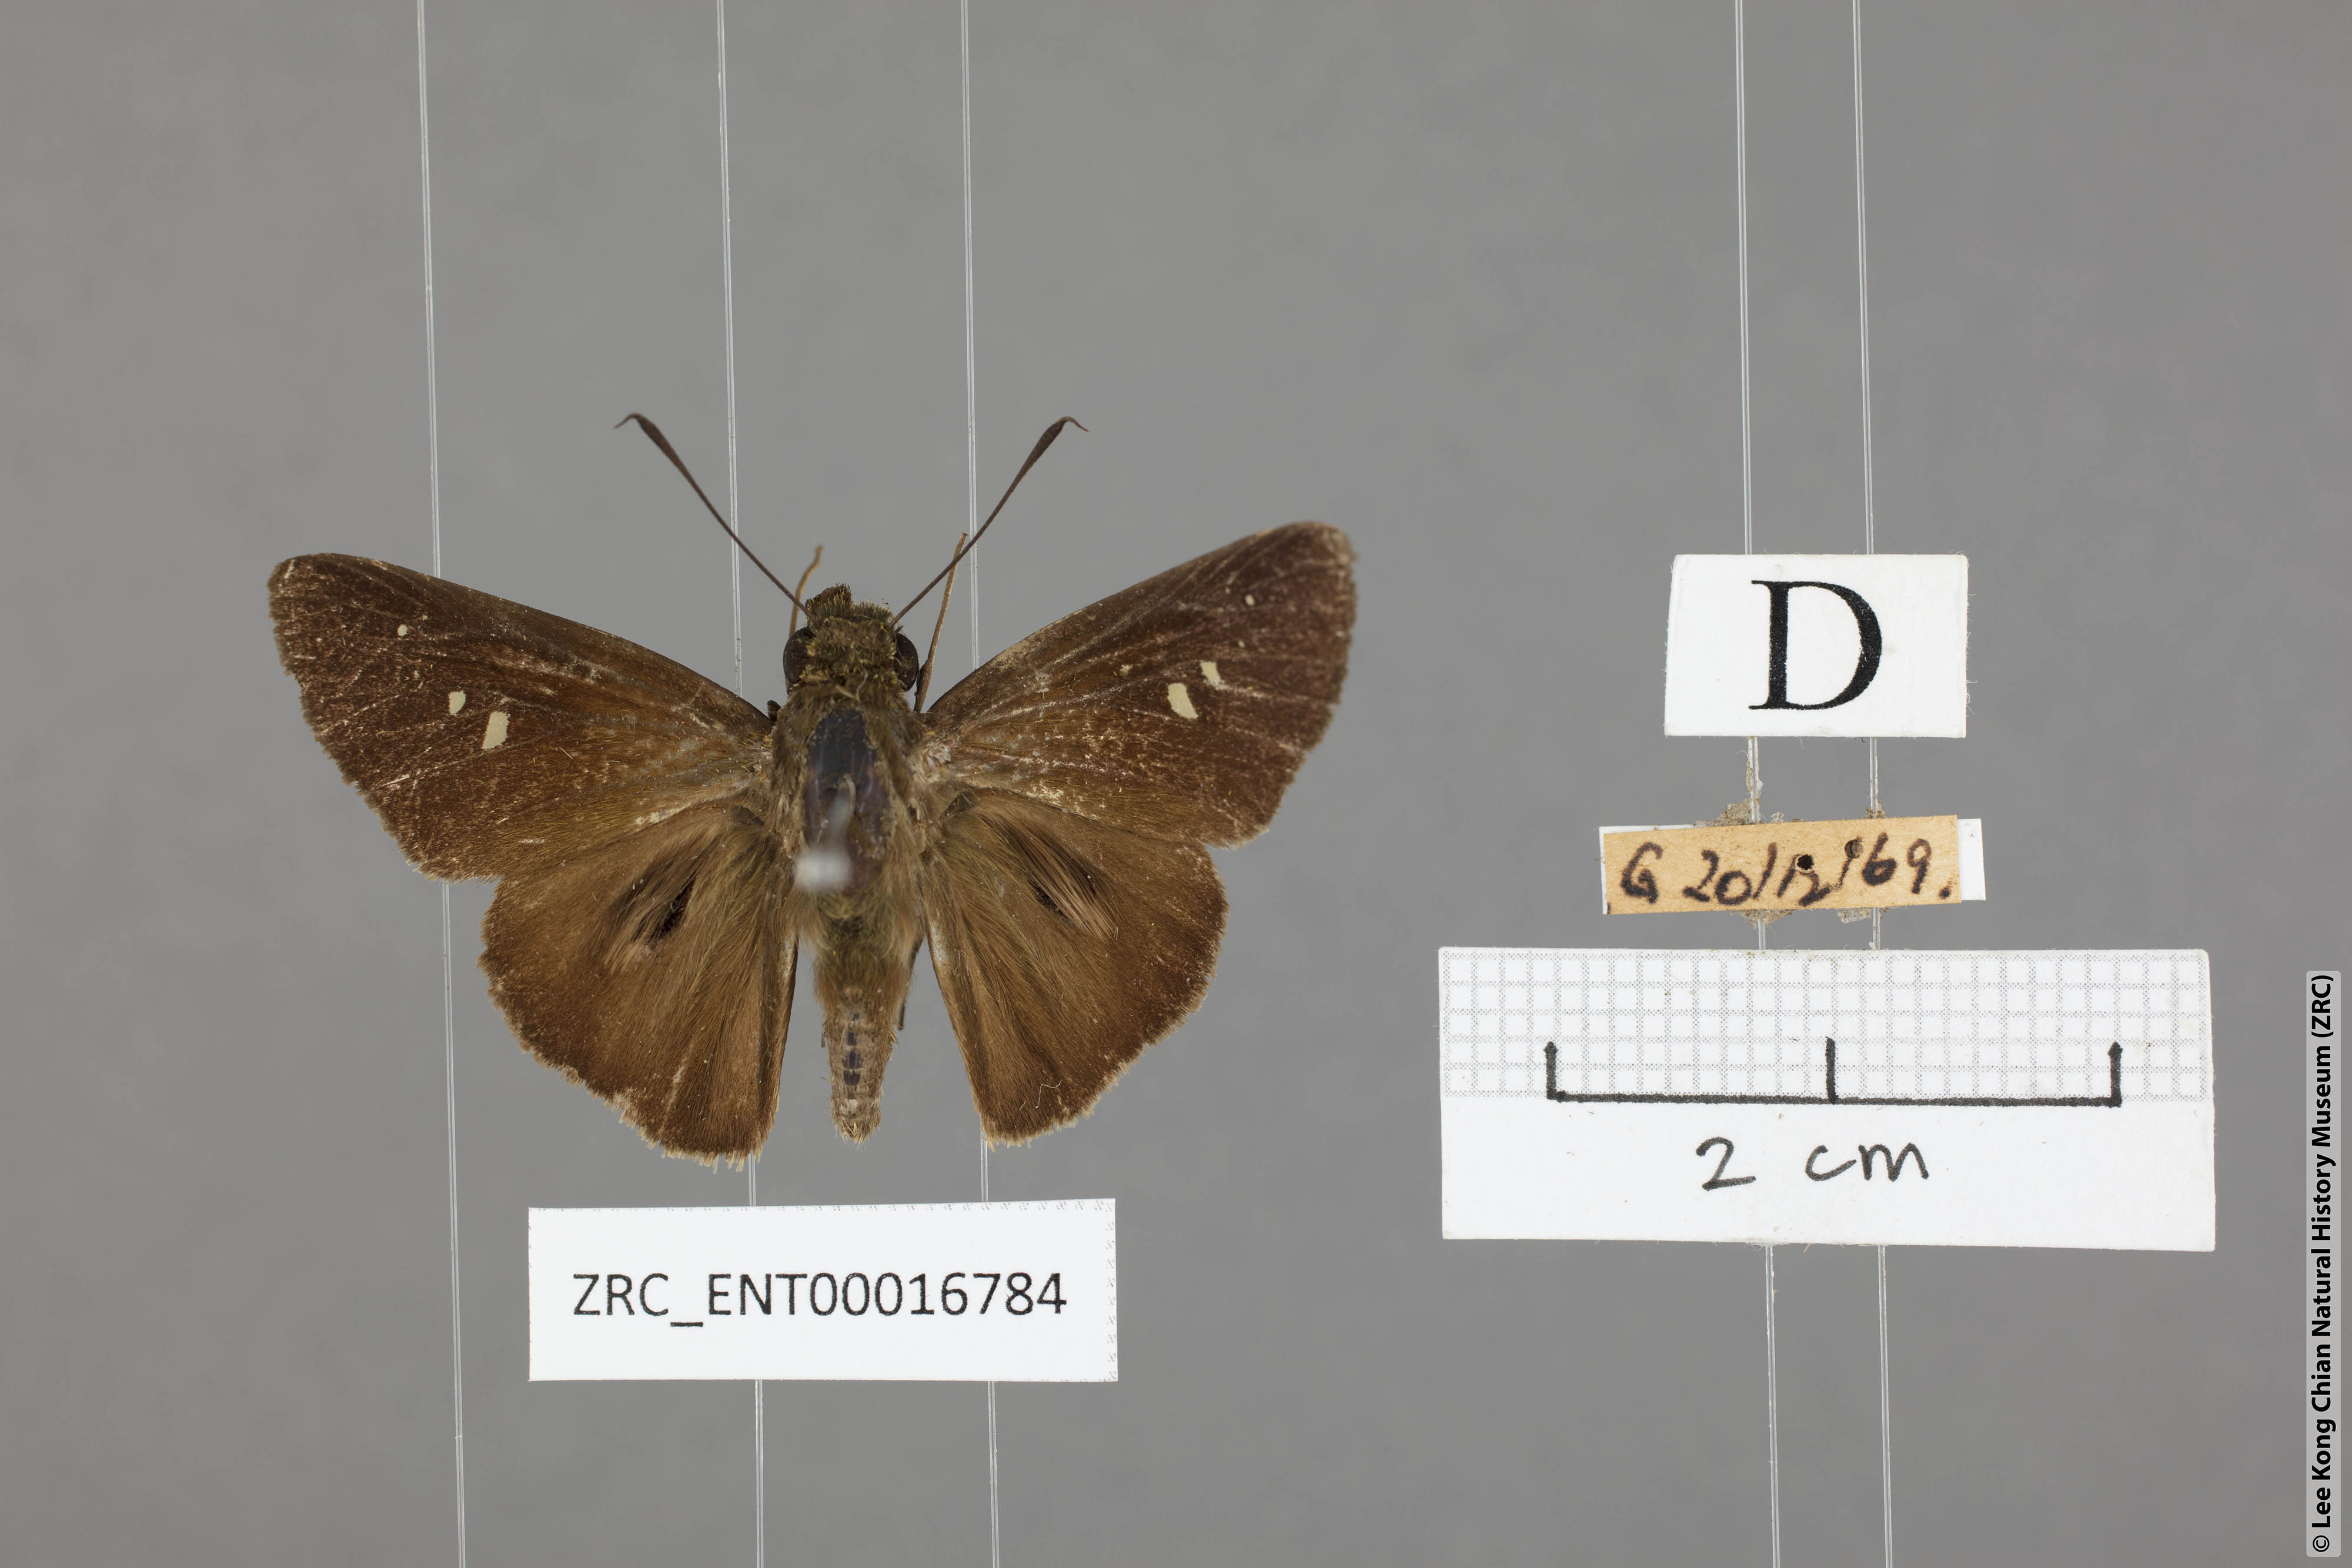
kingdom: Animalia
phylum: Arthropoda
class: Insecta
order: Lepidoptera
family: Hesperiidae
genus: Baoris
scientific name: Baoris oceia
